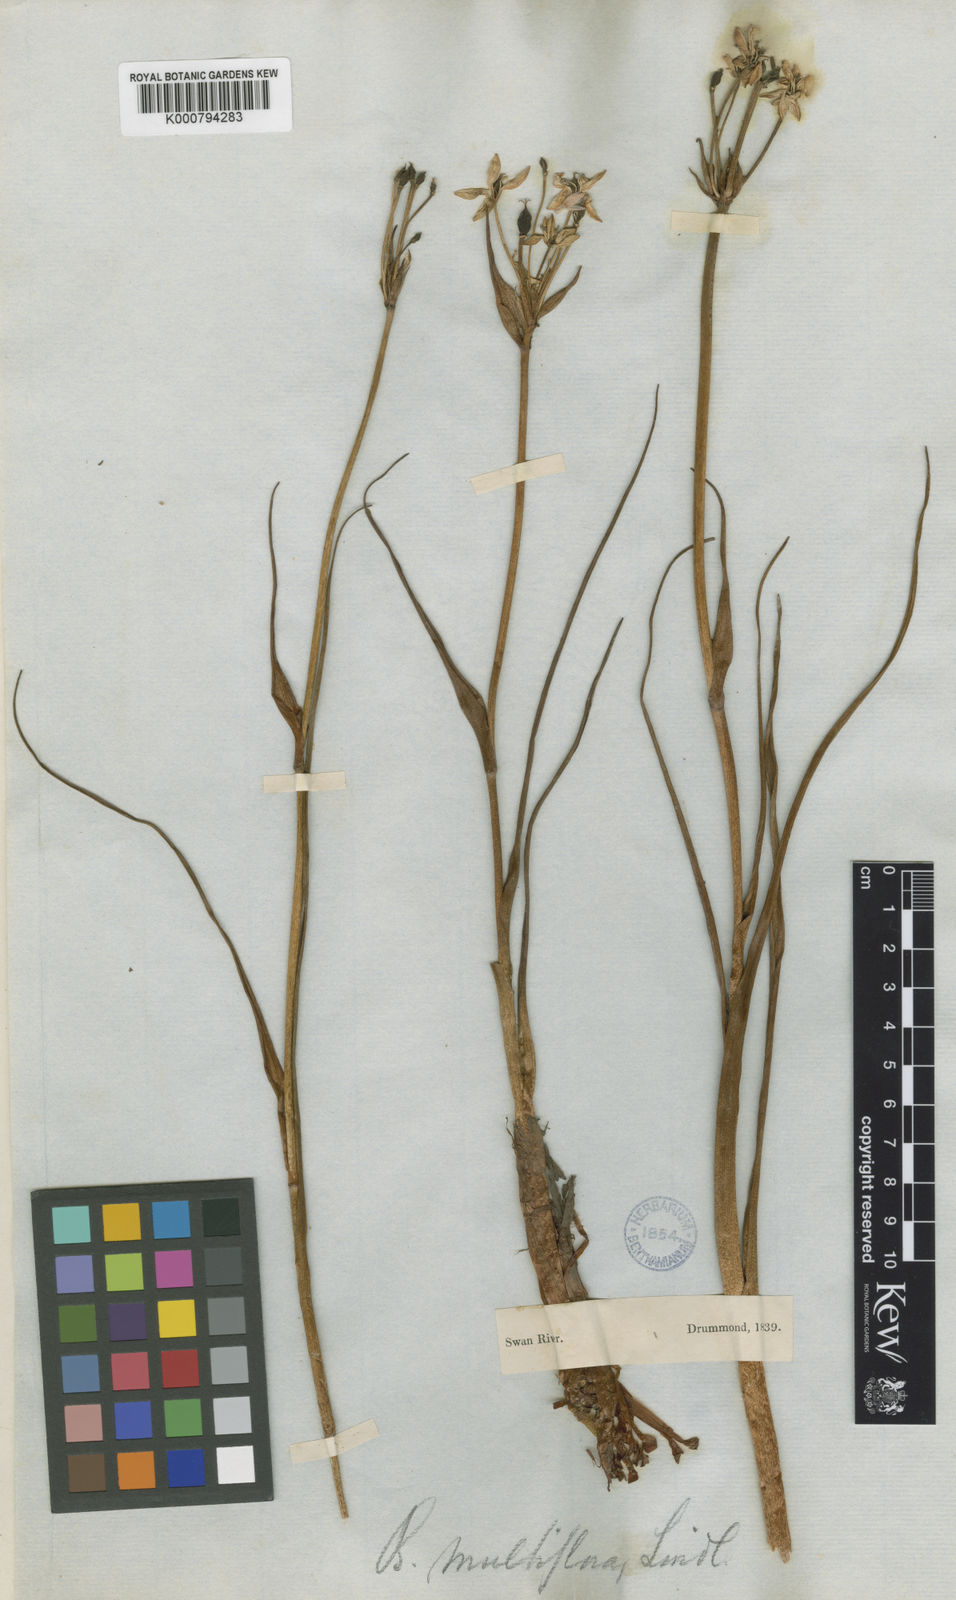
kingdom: Plantae
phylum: Tracheophyta
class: Liliopsida
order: Liliales
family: Colchicaceae
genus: Burchardia
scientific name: Burchardia multiflora
